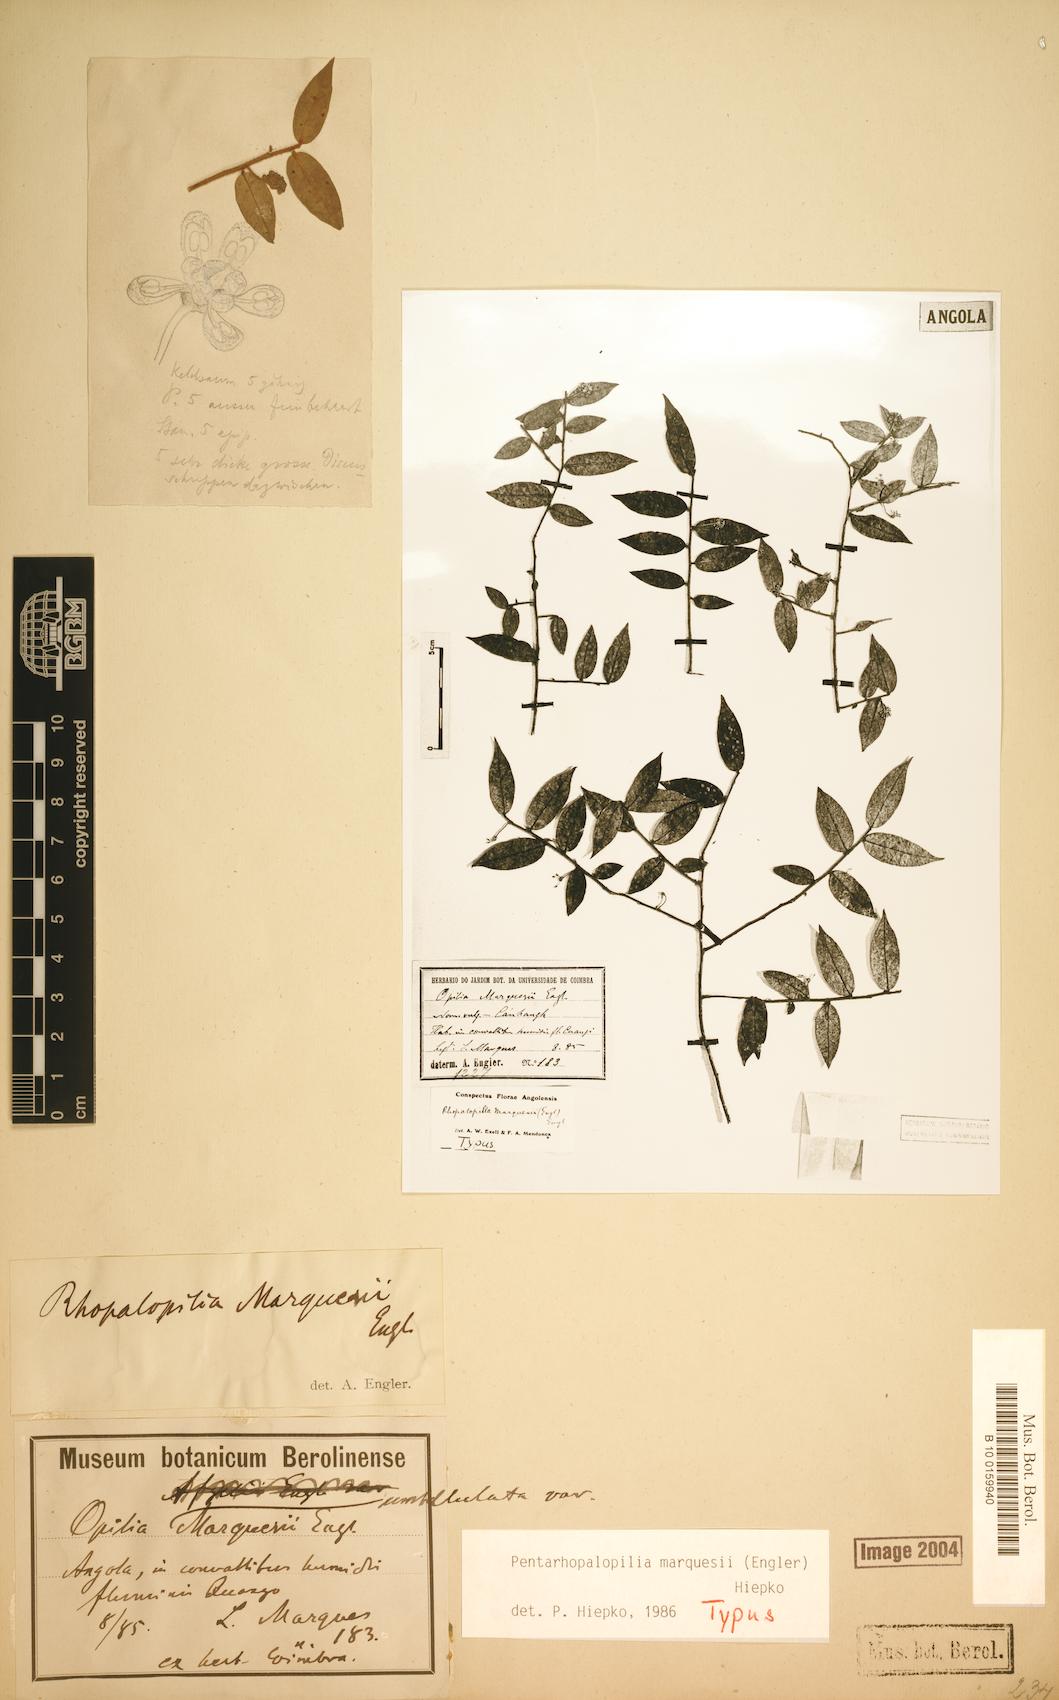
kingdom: Plantae
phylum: Tracheophyta
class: Magnoliopsida
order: Santalales
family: Opiliaceae
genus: Pentarhopalopilia
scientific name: Pentarhopalopilia marquesii
